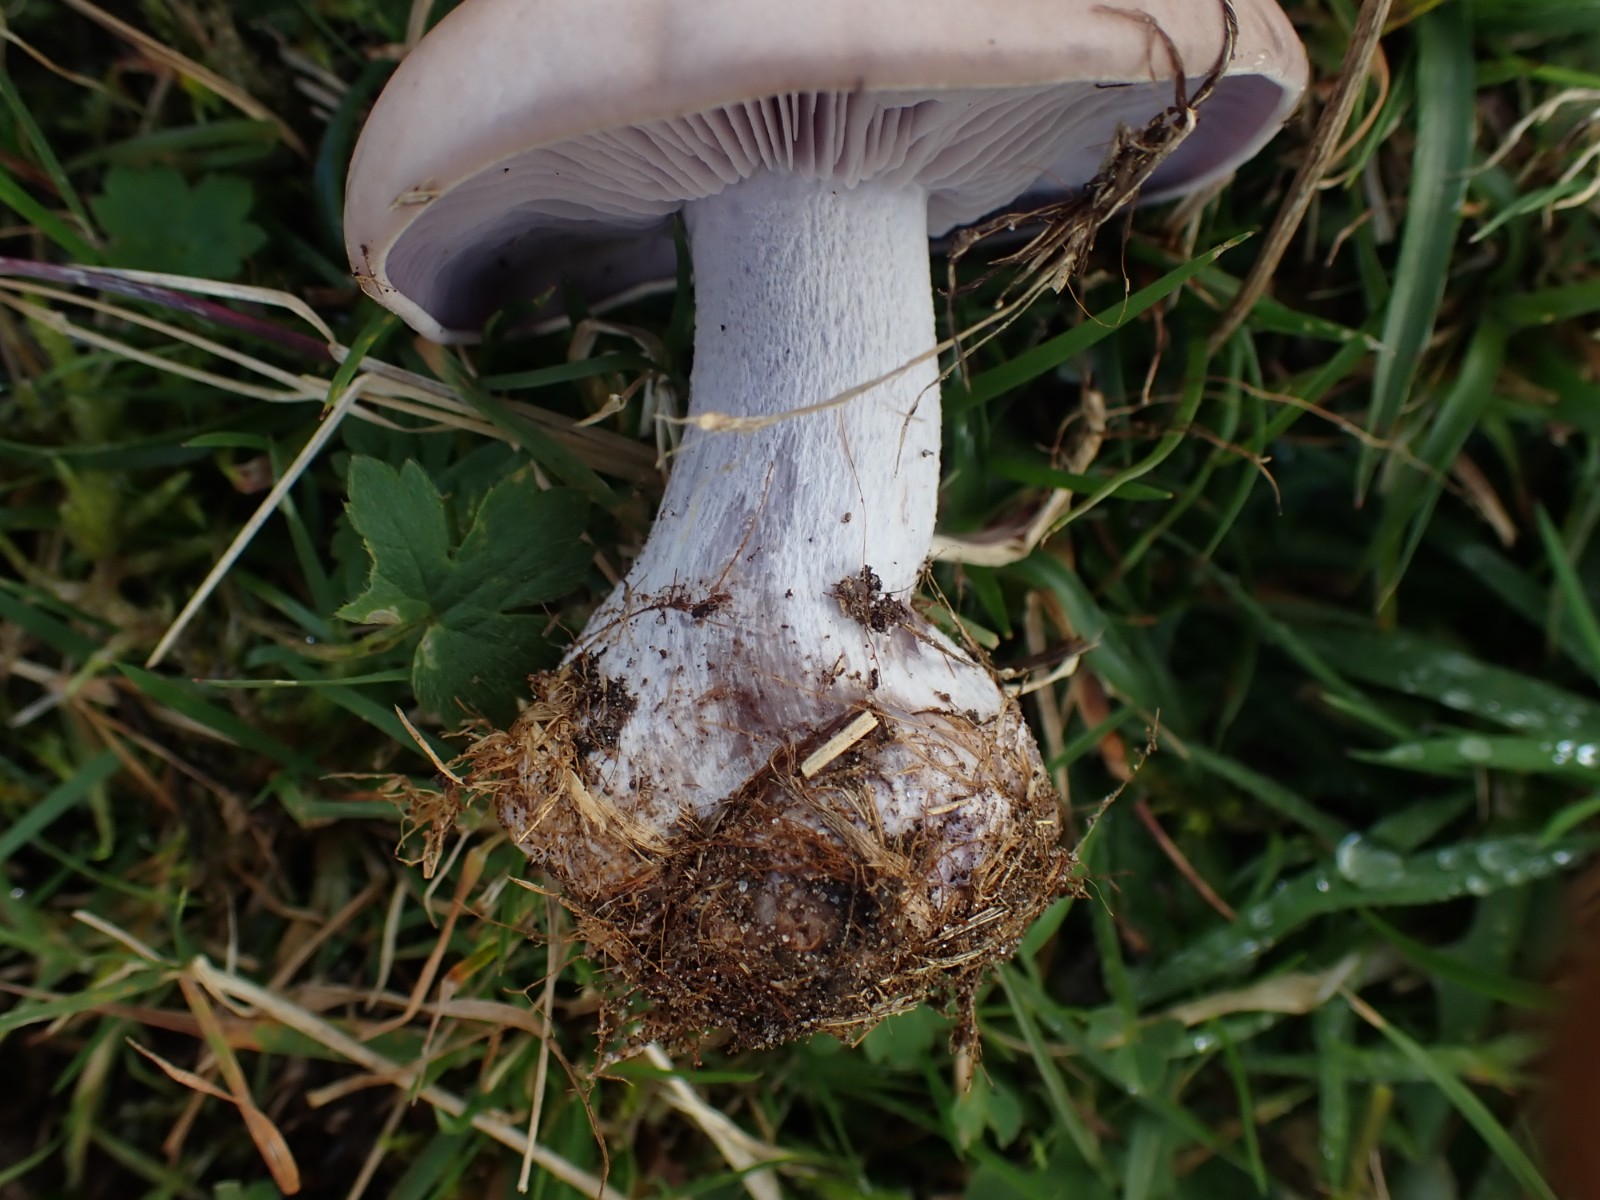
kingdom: Fungi
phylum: Basidiomycota
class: Agaricomycetes
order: Agaricales
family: Tricholomataceae
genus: Lepista
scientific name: Lepista nuda
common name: violet hekseringshat
